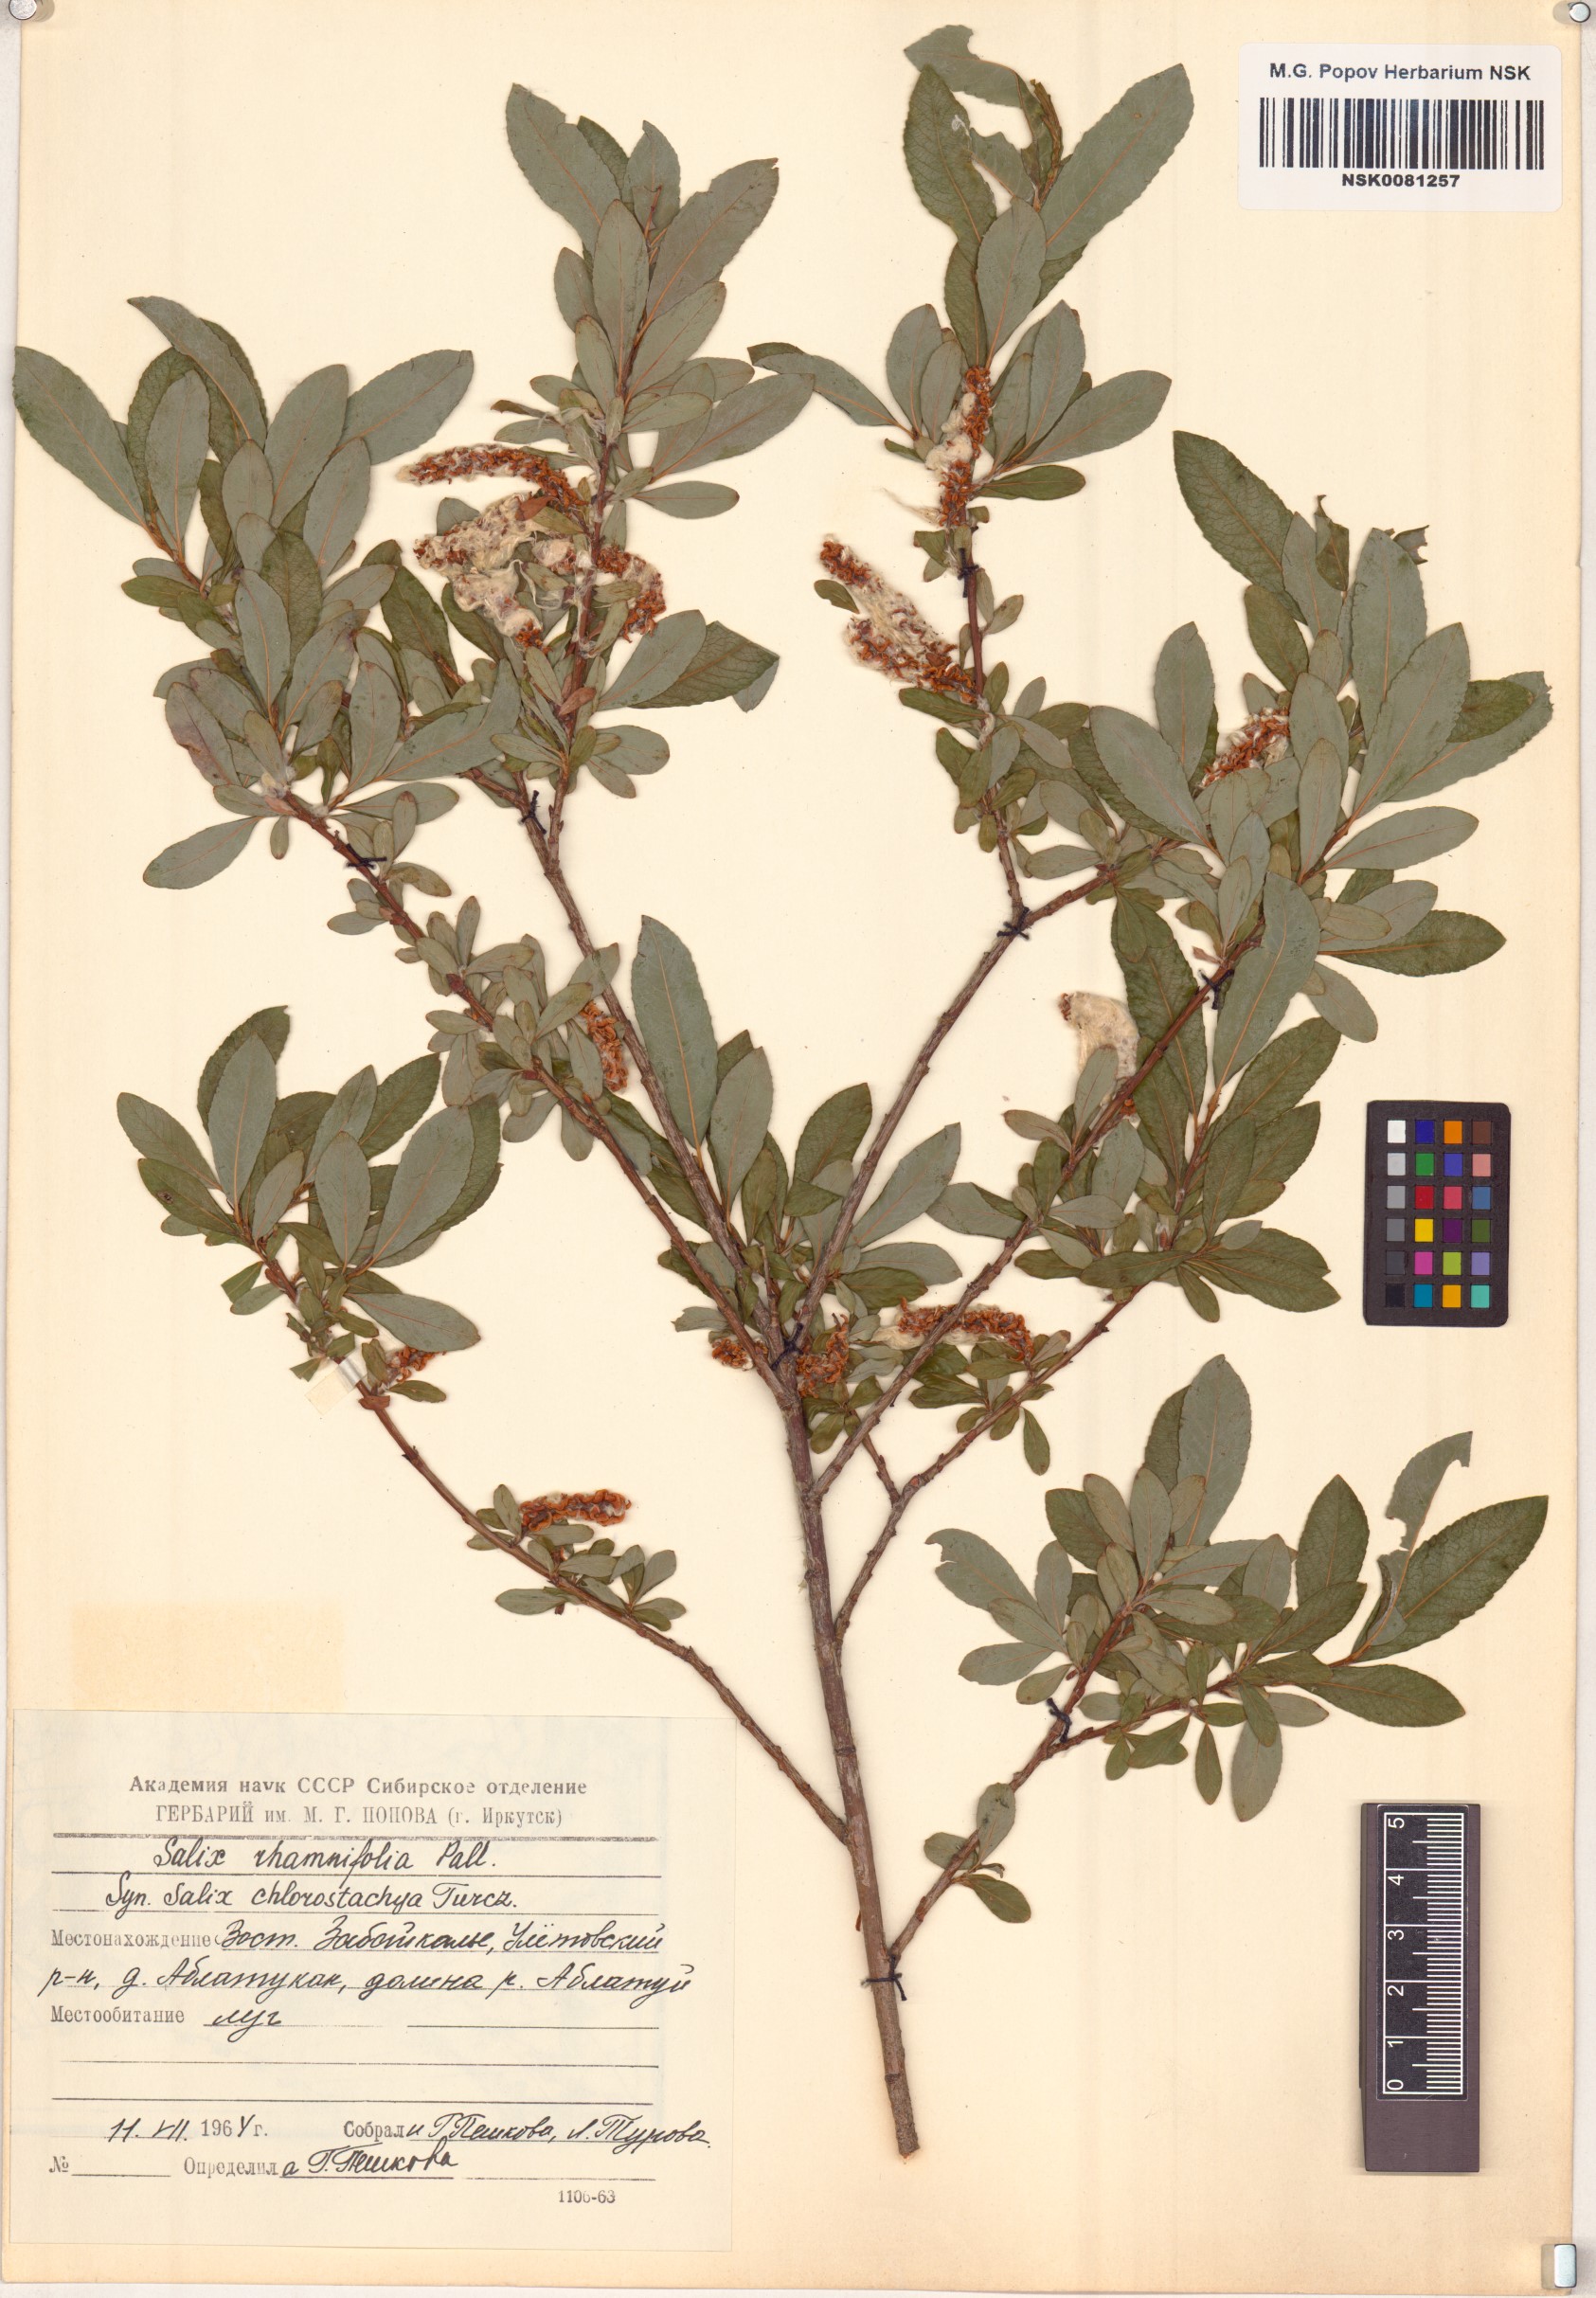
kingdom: Plantae
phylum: Tracheophyta
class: Magnoliopsida
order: Malpighiales
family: Salicaceae
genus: Salix
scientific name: Salix rhamnifolia
